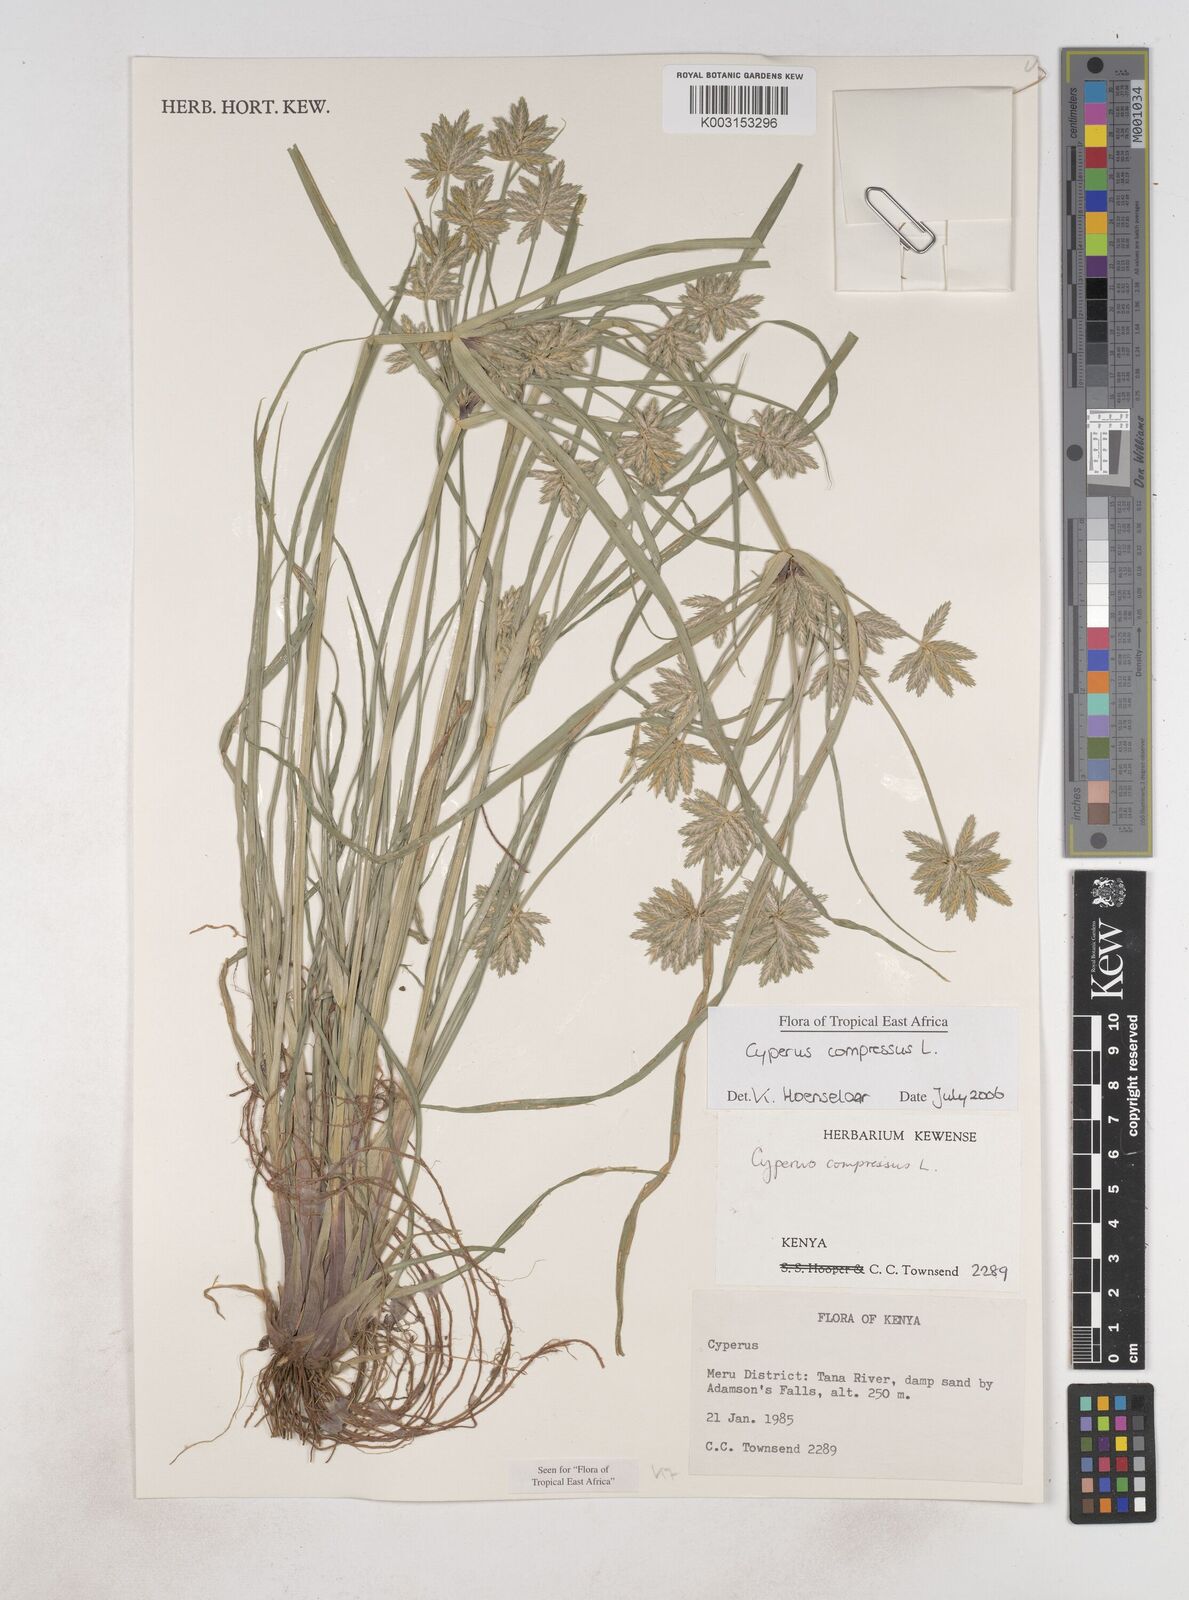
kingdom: Plantae
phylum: Tracheophyta
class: Liliopsida
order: Poales
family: Cyperaceae
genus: Cyperus
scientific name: Cyperus compressus
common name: Poorland flatsedge
